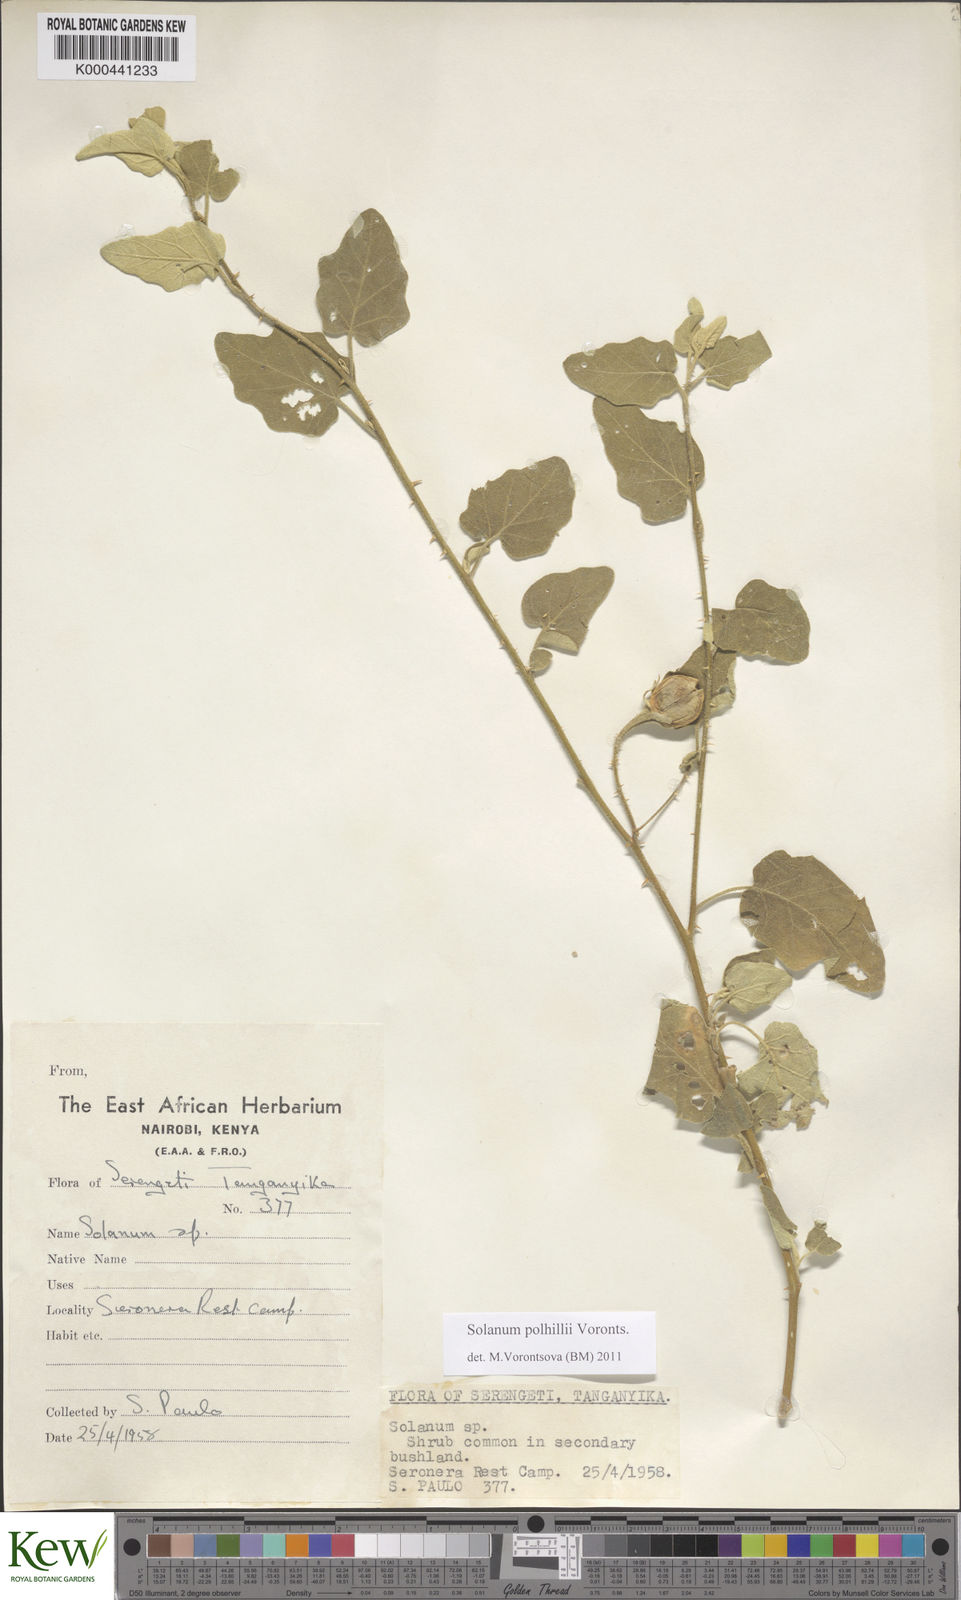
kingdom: Plantae
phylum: Tracheophyta
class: Magnoliopsida
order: Solanales
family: Solanaceae
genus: Solanum
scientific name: Solanum polhillii
